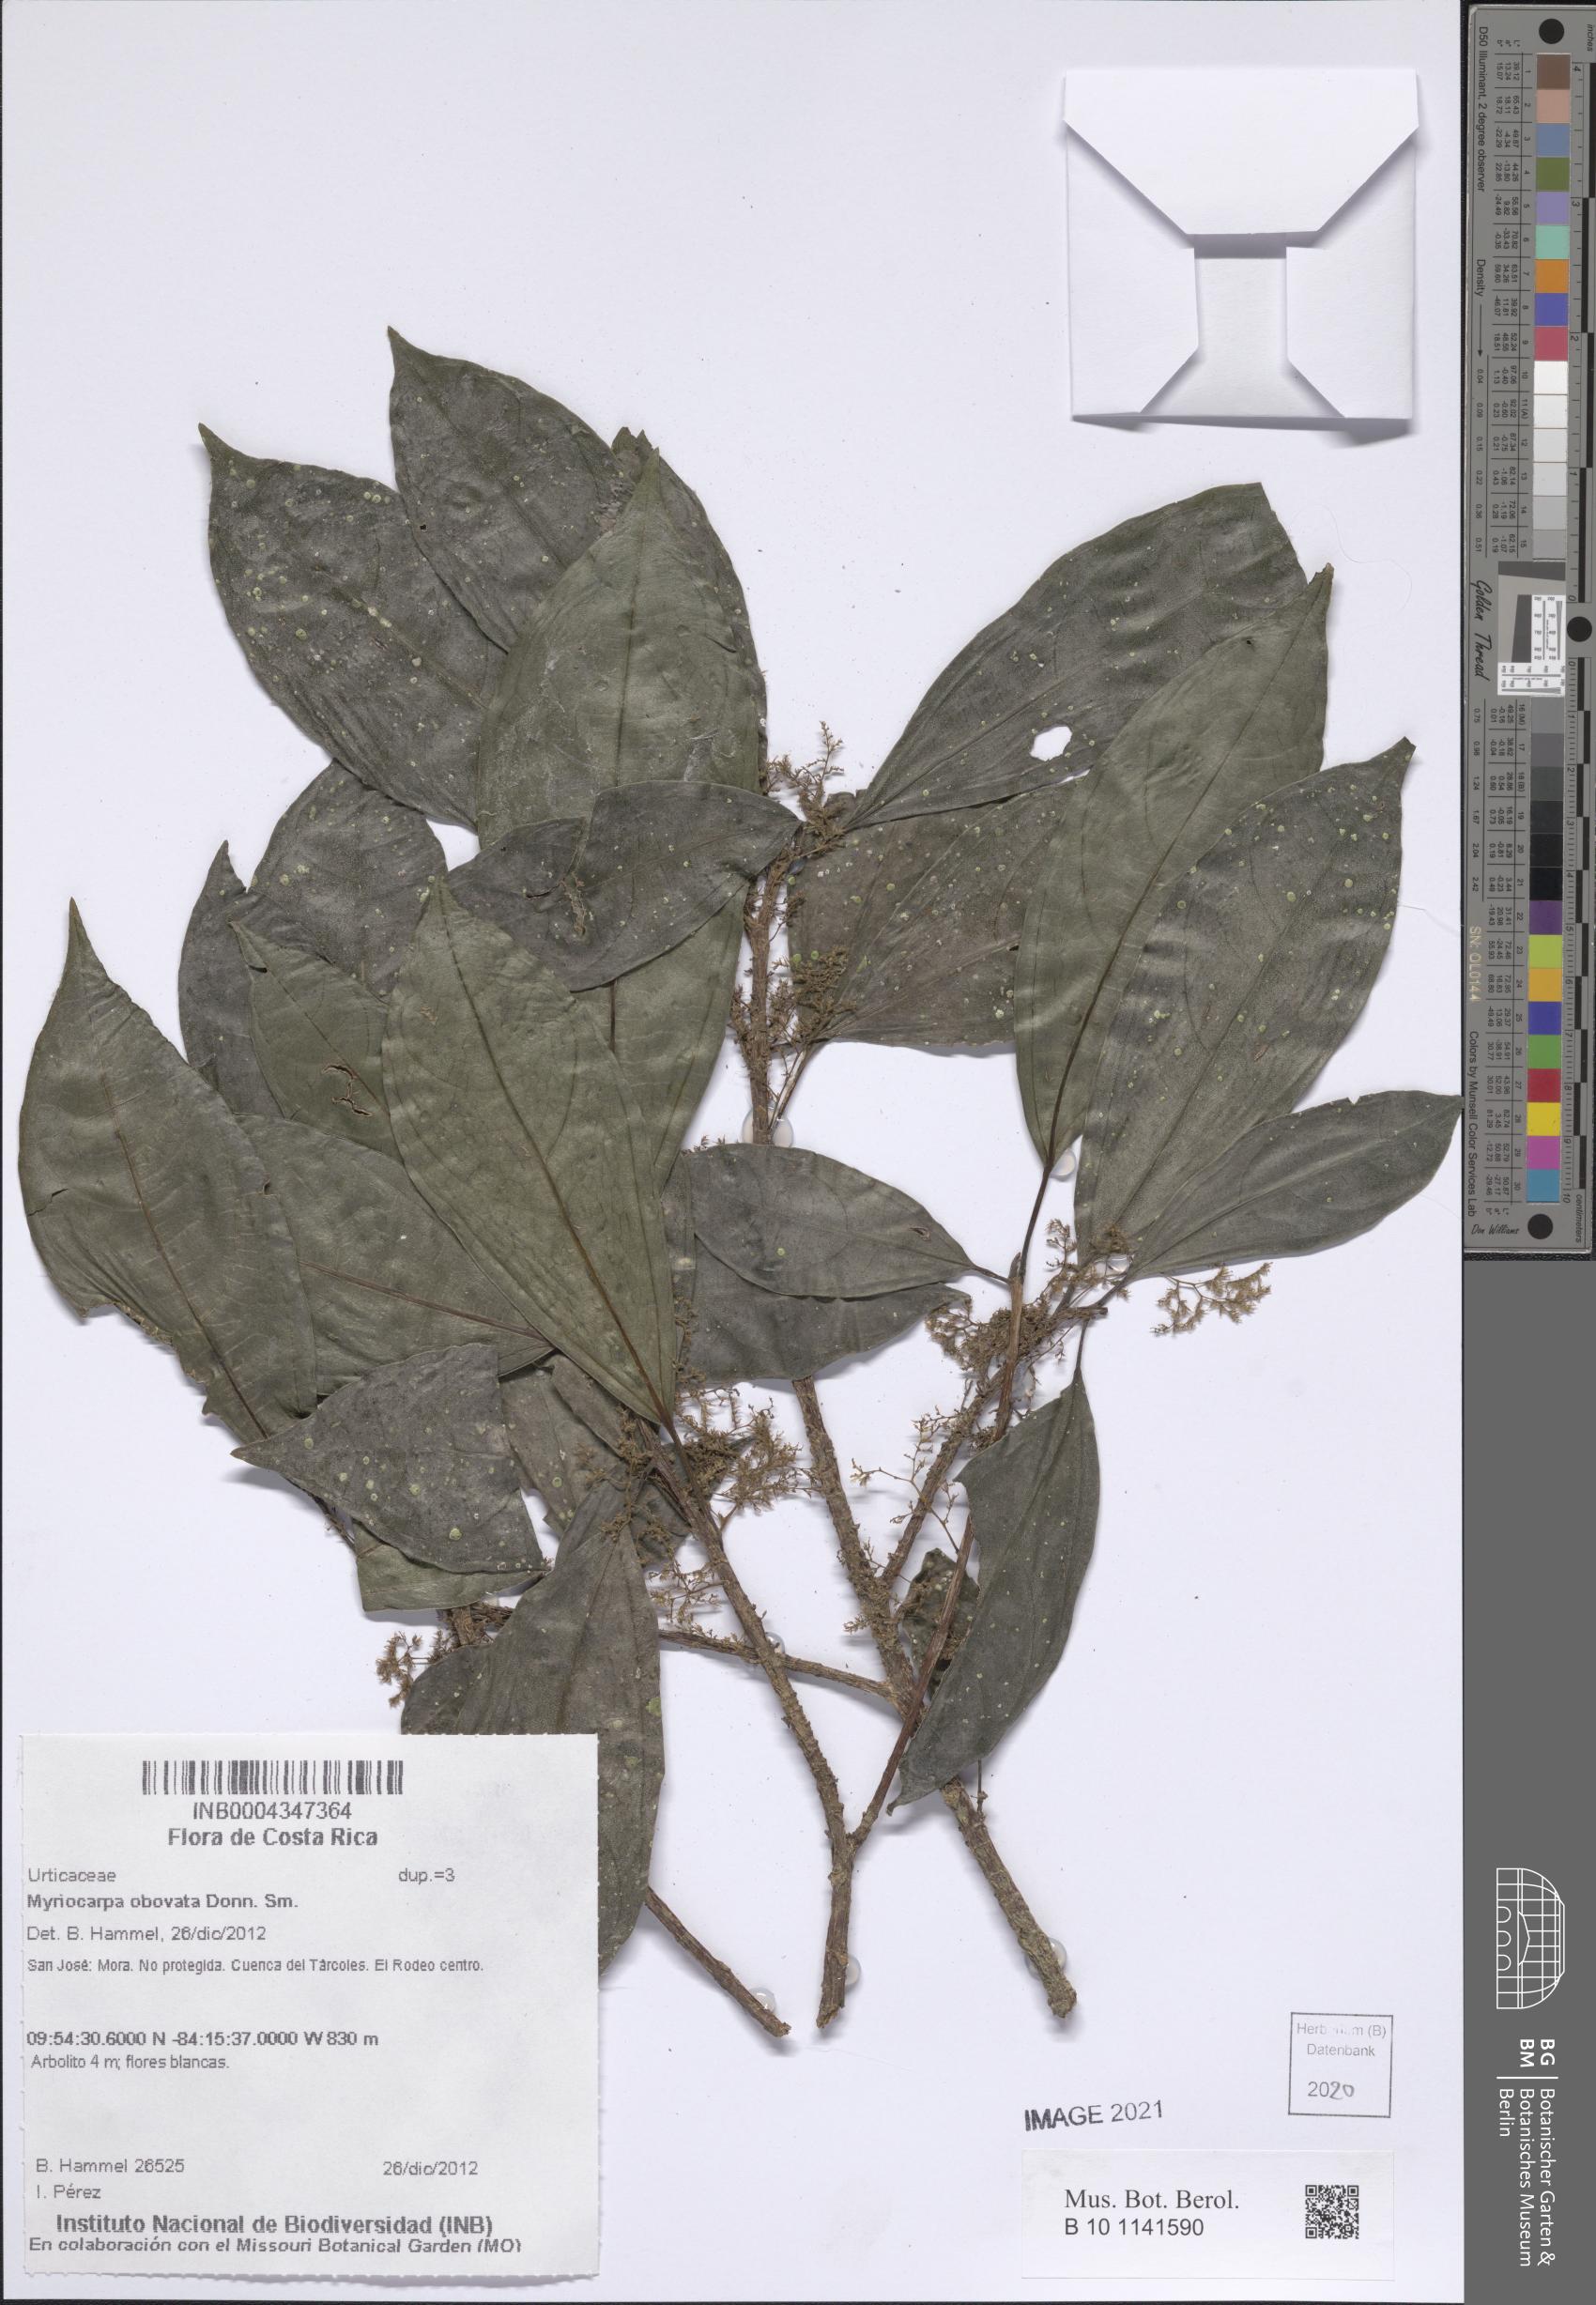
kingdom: Plantae
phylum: Tracheophyta
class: Magnoliopsida
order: Rosales
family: Urticaceae
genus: Myriocarpa
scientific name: Myriocarpa obovata
